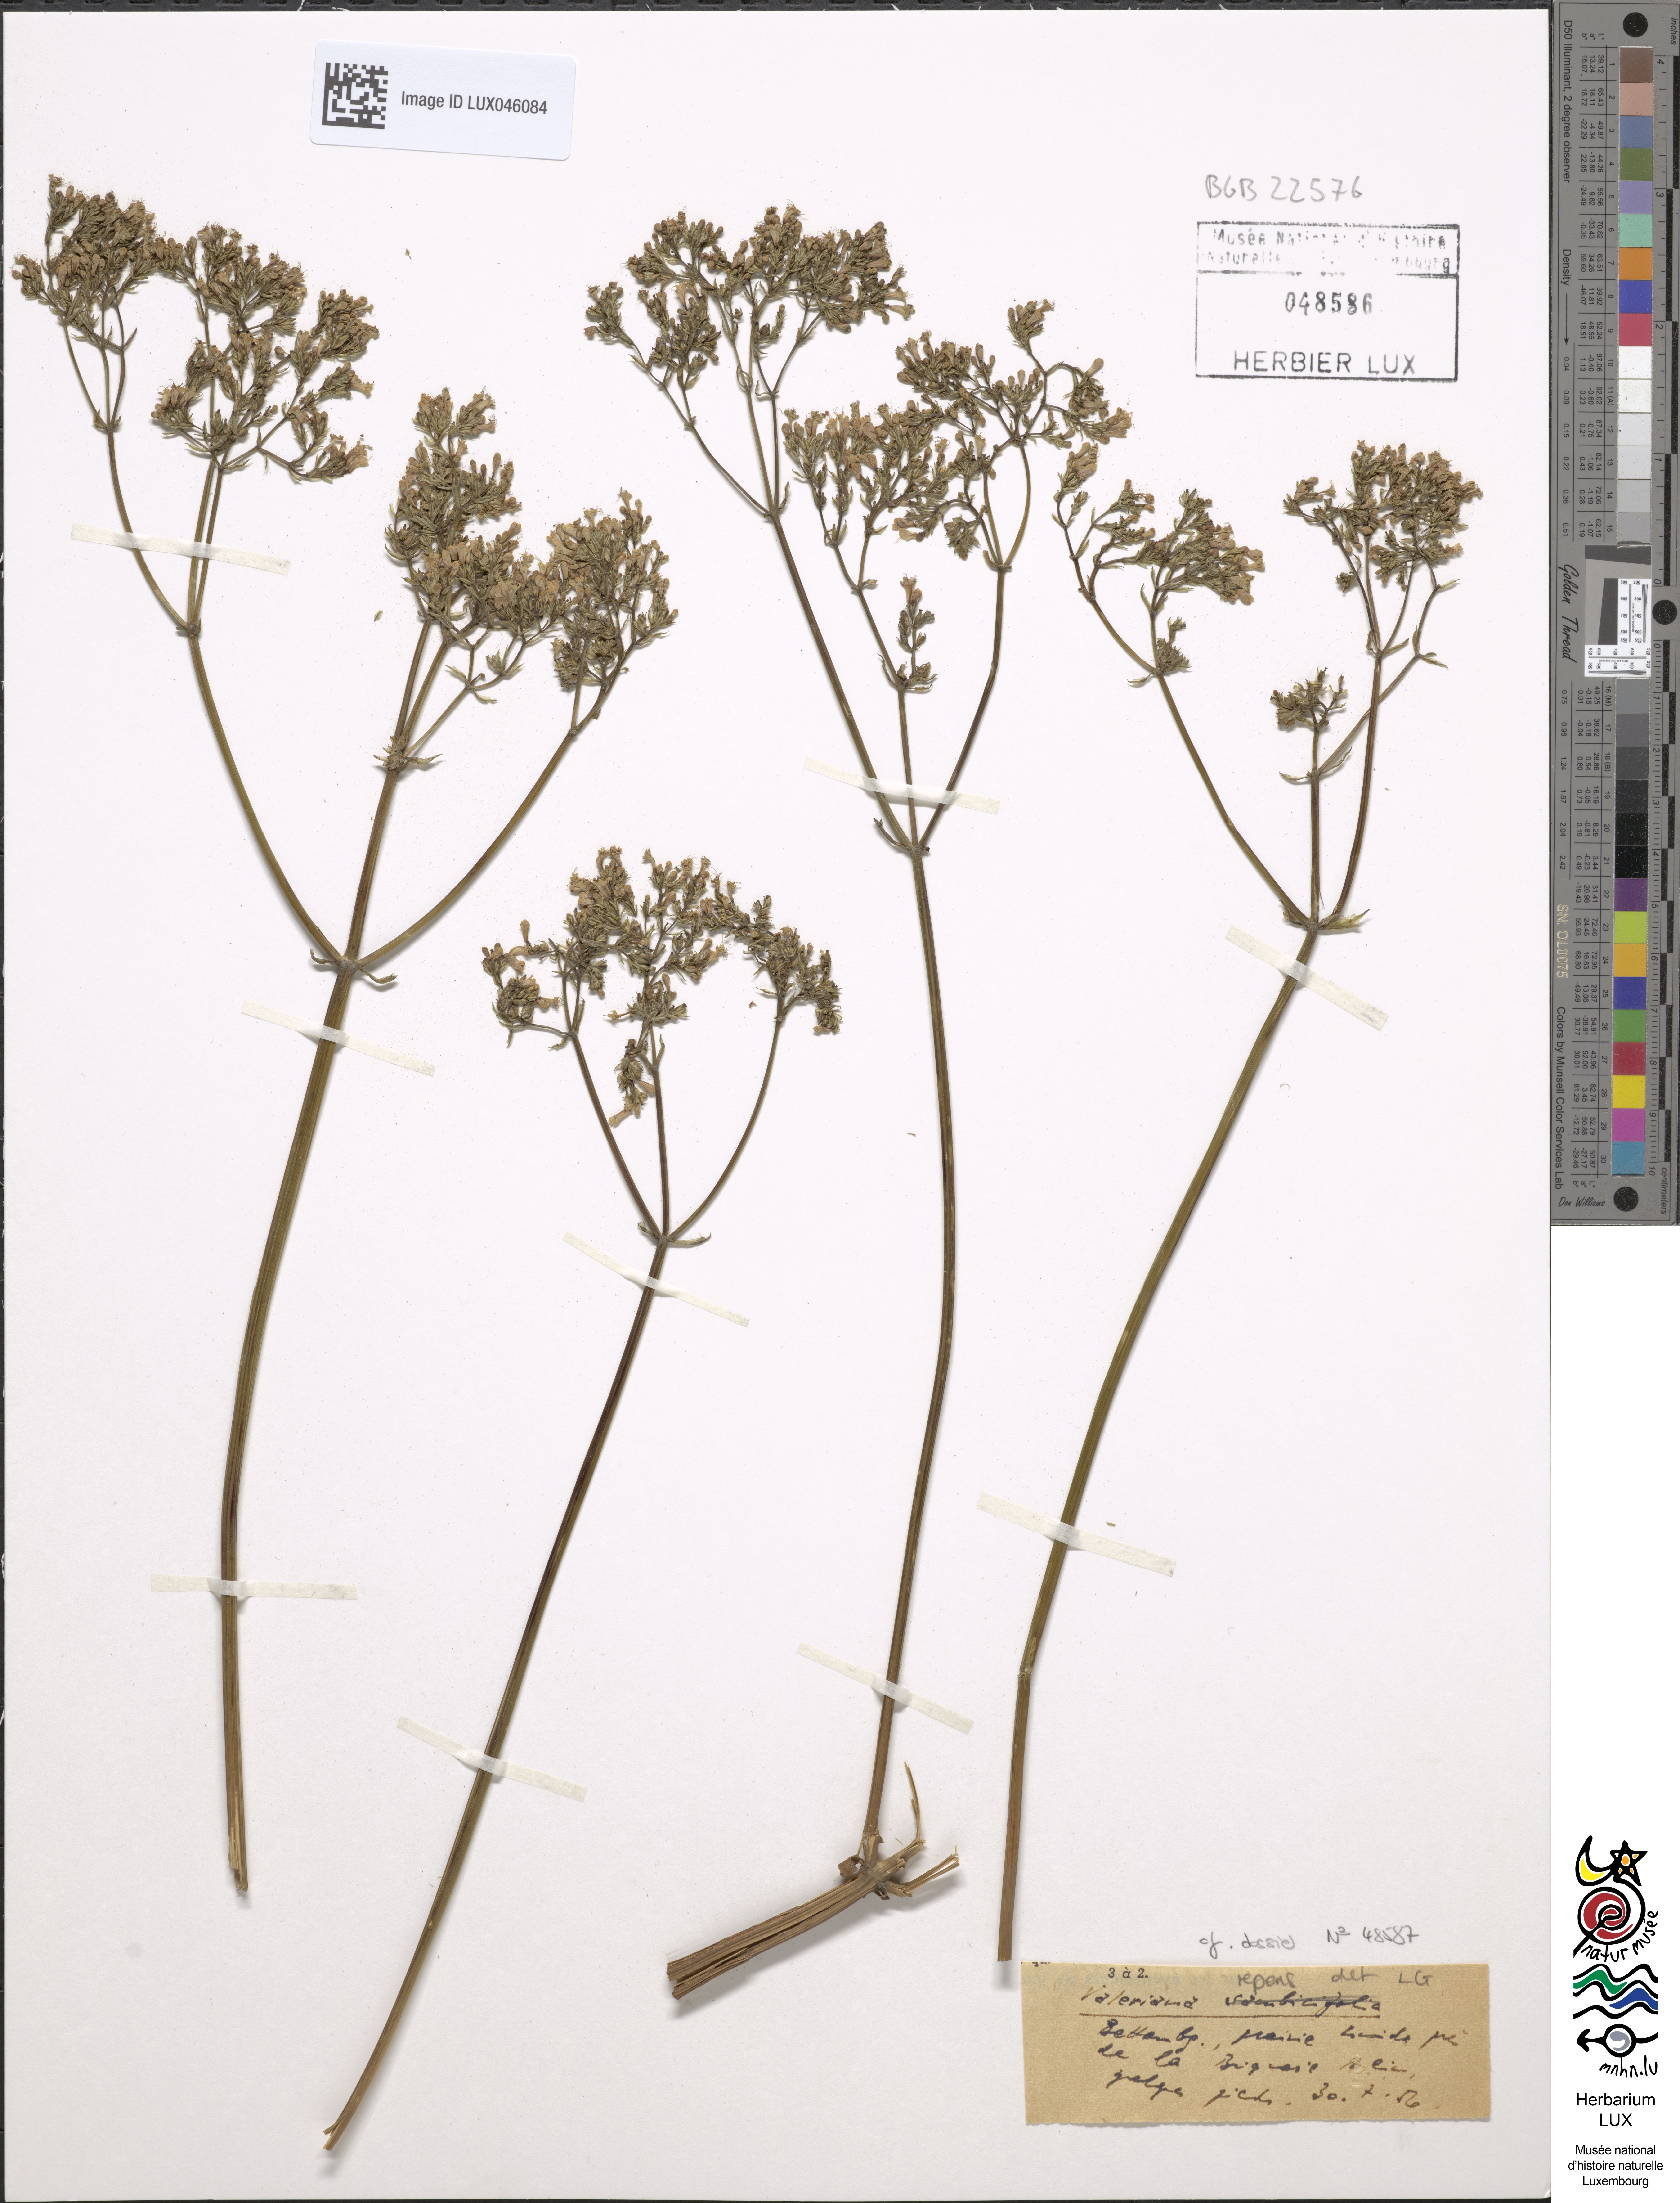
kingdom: Plantae
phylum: Tracheophyta
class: Magnoliopsida
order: Dipsacales
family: Caprifoliaceae
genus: Valeriana
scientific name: Valeriana excelsa
